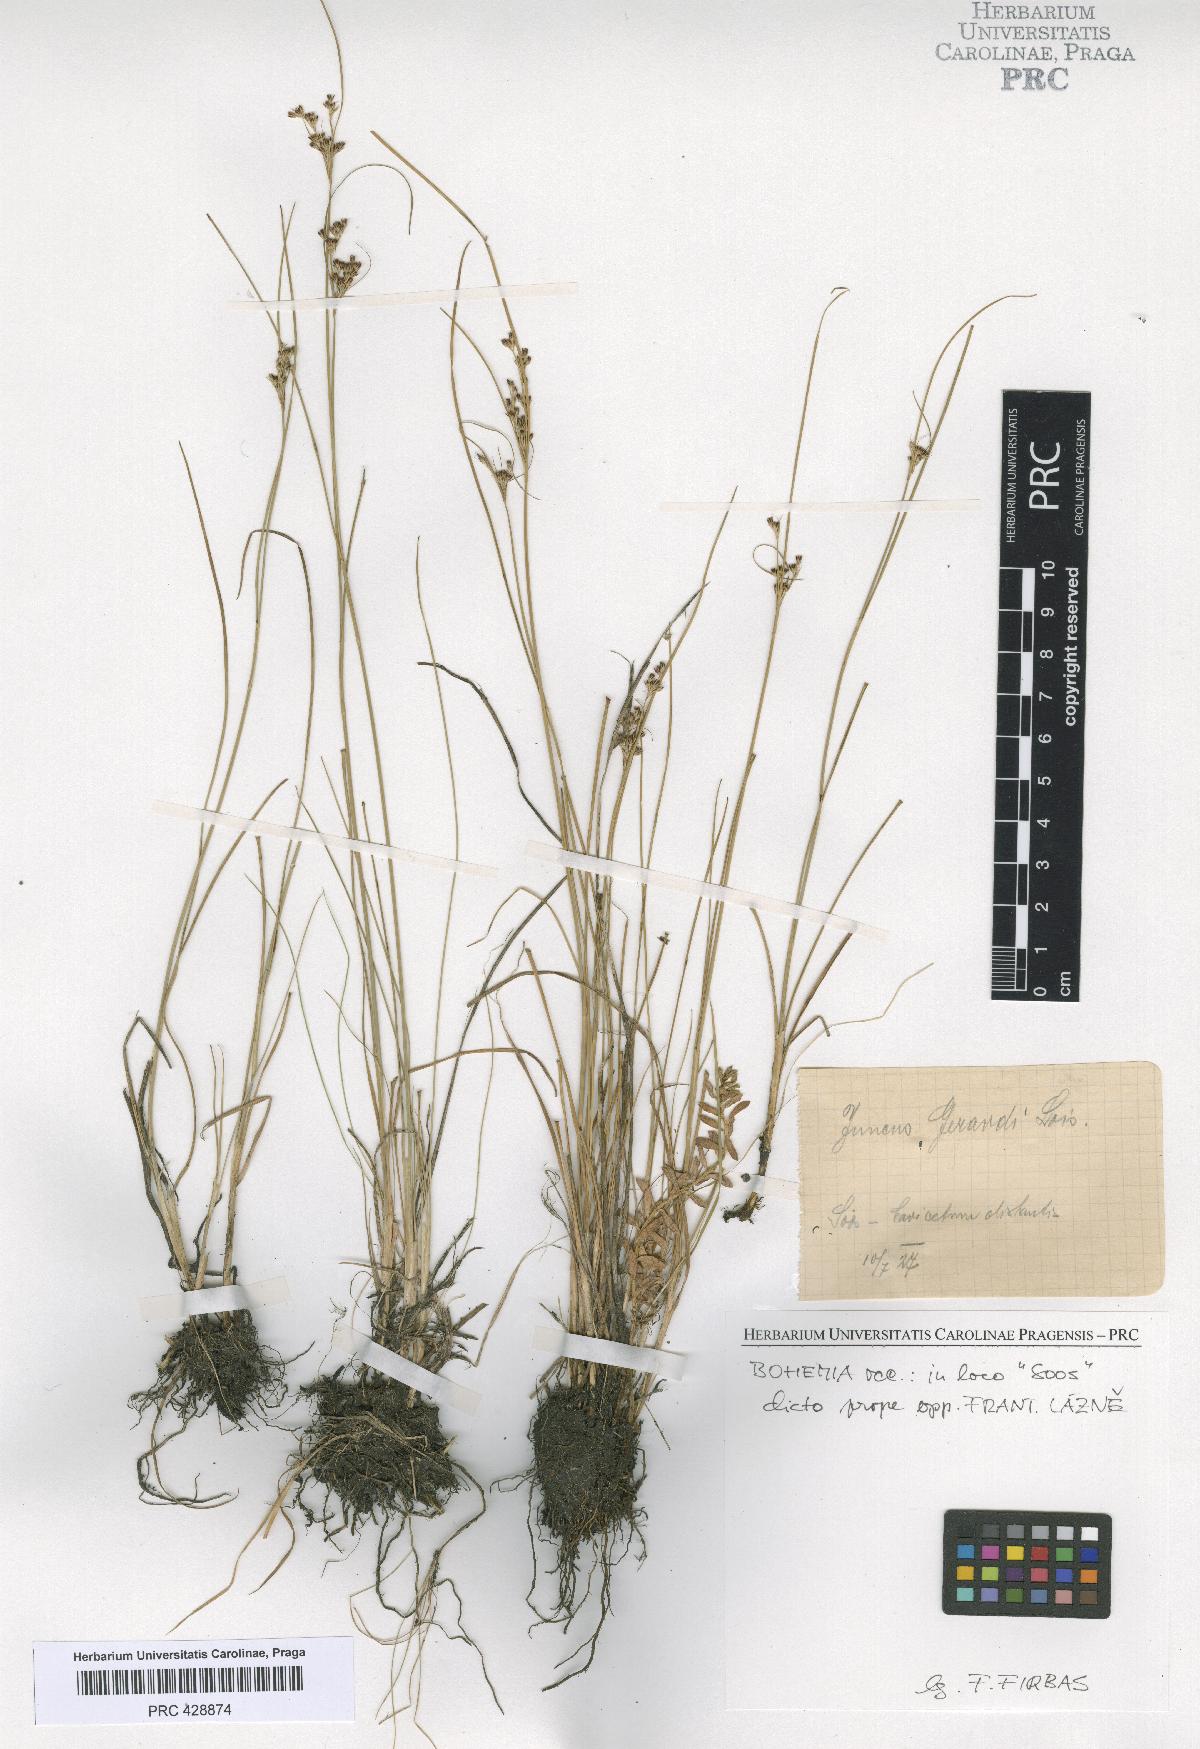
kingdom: Plantae
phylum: Tracheophyta
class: Liliopsida
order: Poales
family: Juncaceae
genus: Juncus
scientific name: Juncus compressus
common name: Round-fruited rush
